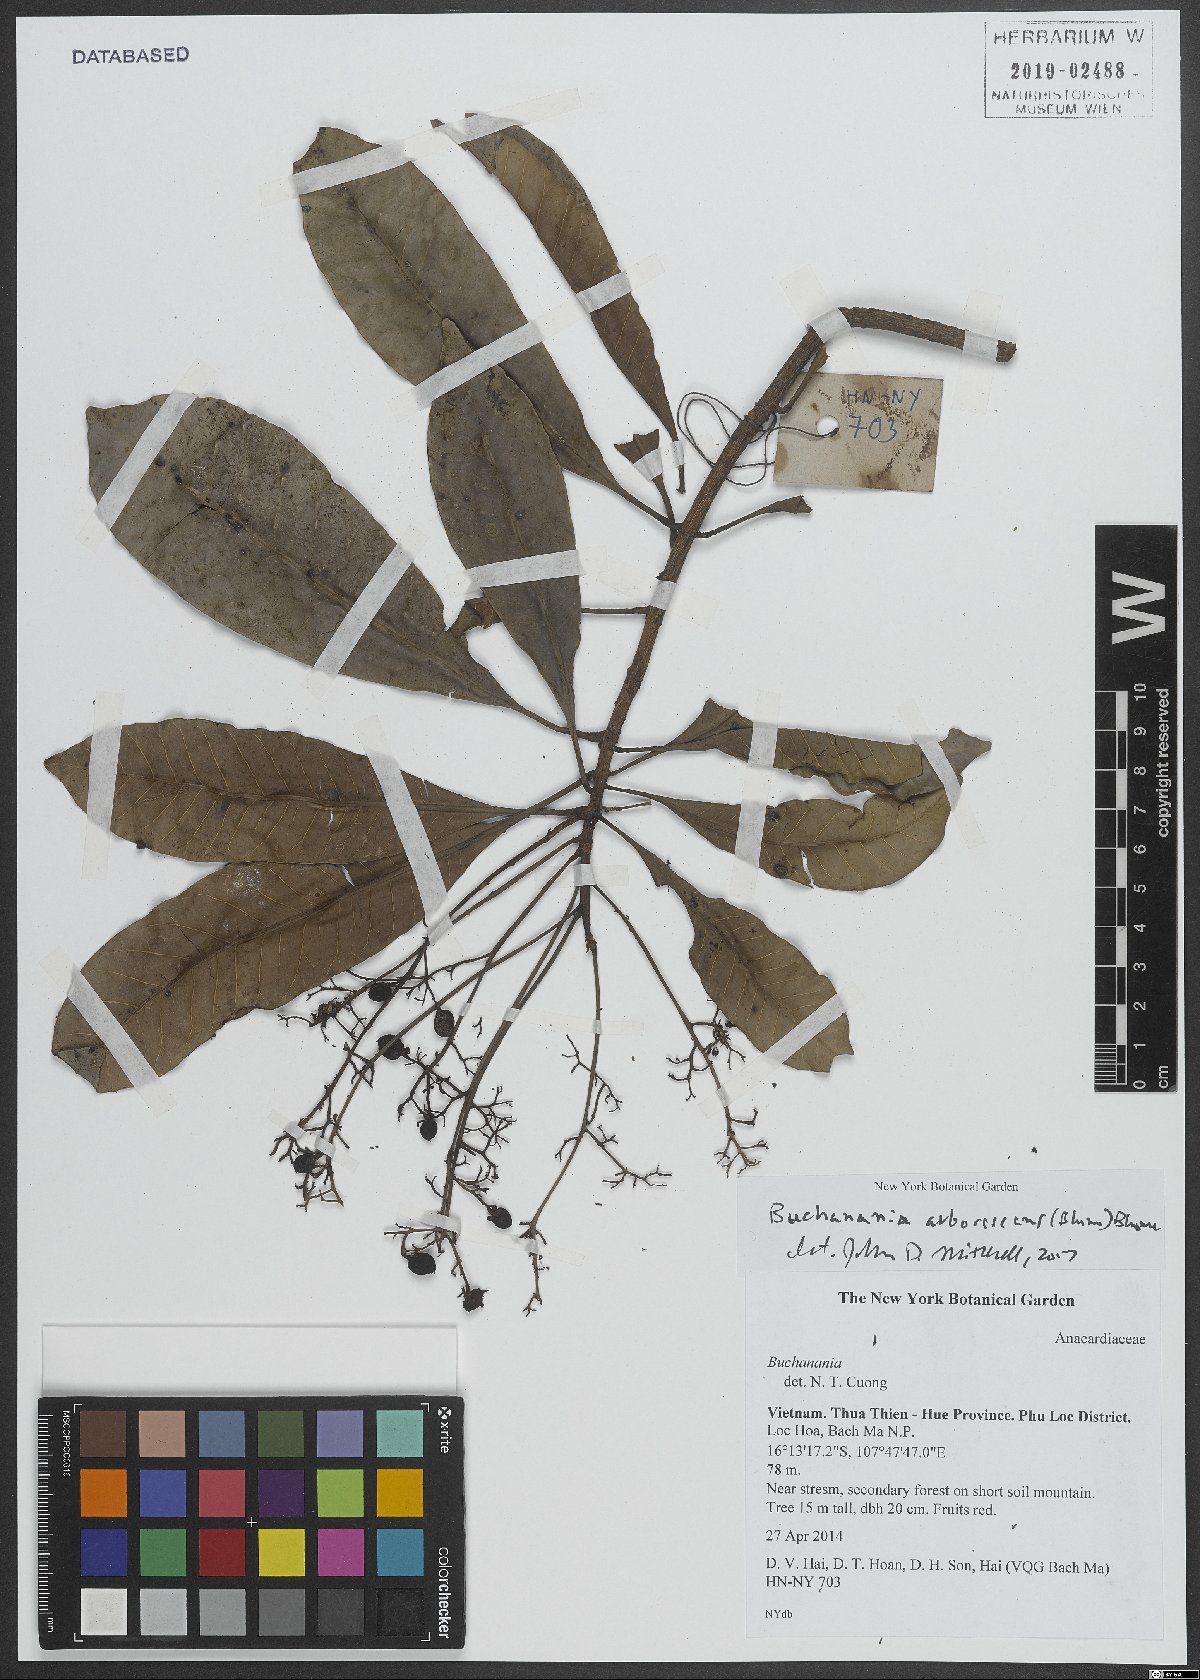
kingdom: Plantae
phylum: Tracheophyta
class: Magnoliopsida
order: Sapindales
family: Anacardiaceae
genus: Buchanania
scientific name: Buchanania arborescens
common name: Sparrow’s mango
